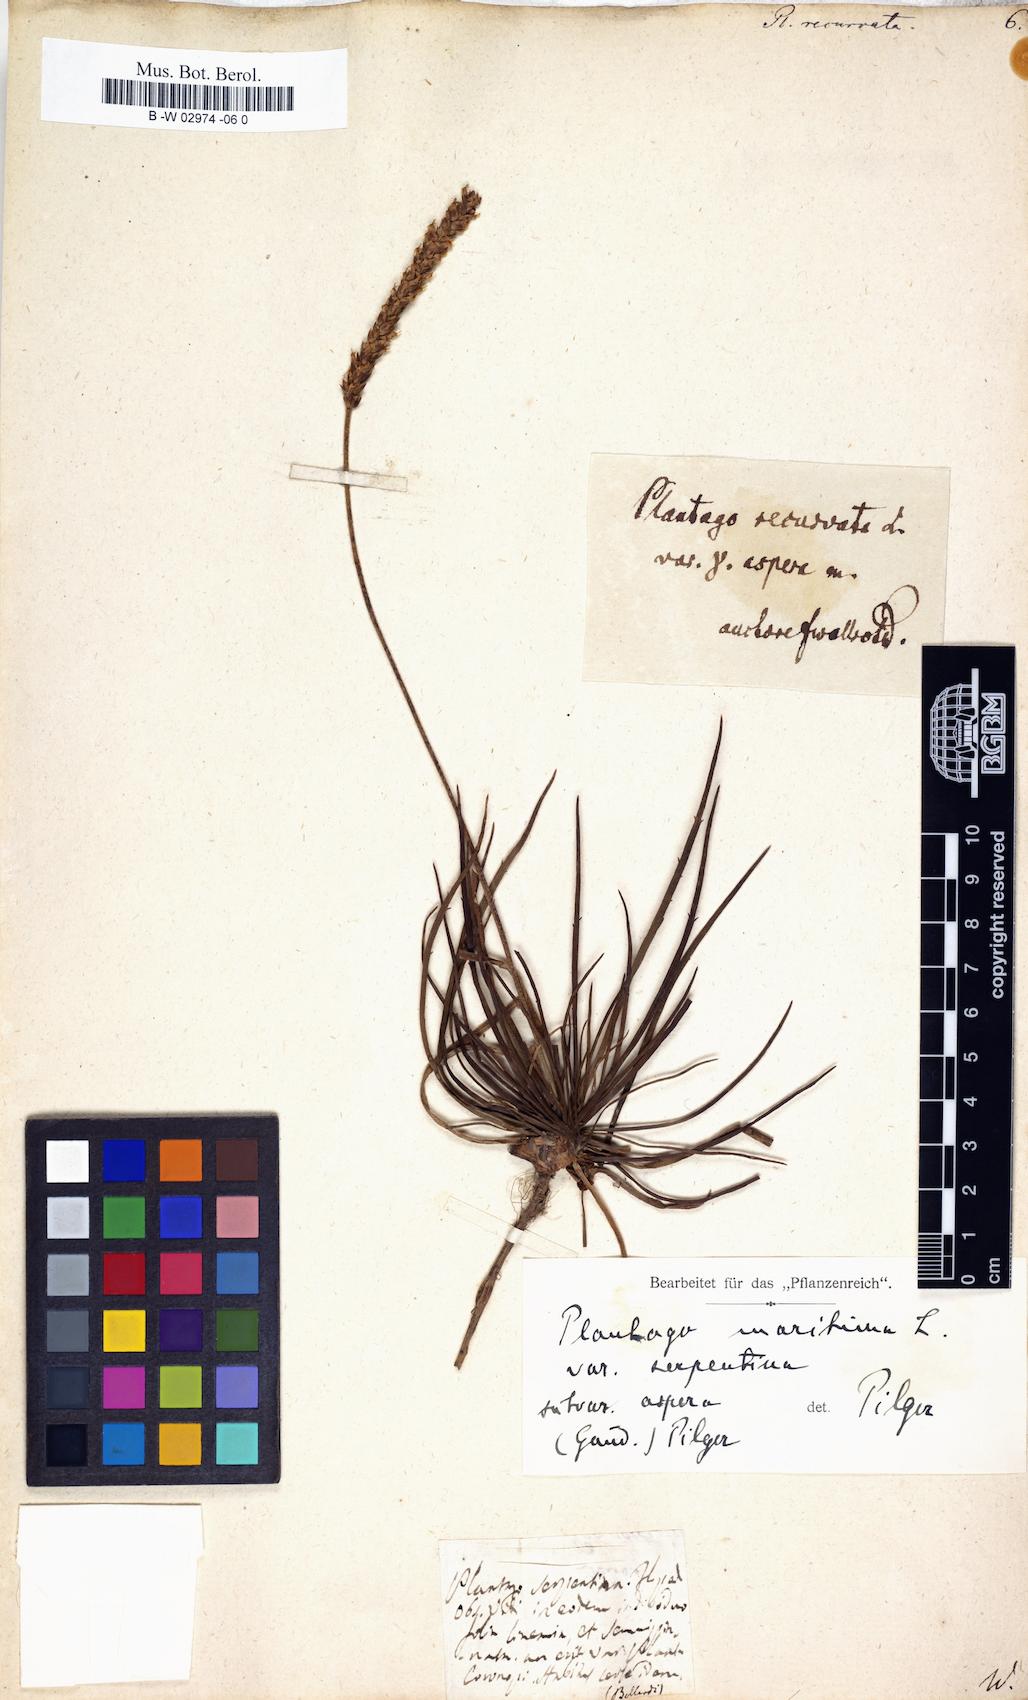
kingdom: Plantae
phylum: Tracheophyta
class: Magnoliopsida
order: Lamiales
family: Plantaginaceae
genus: Plantago
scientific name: Plantago
